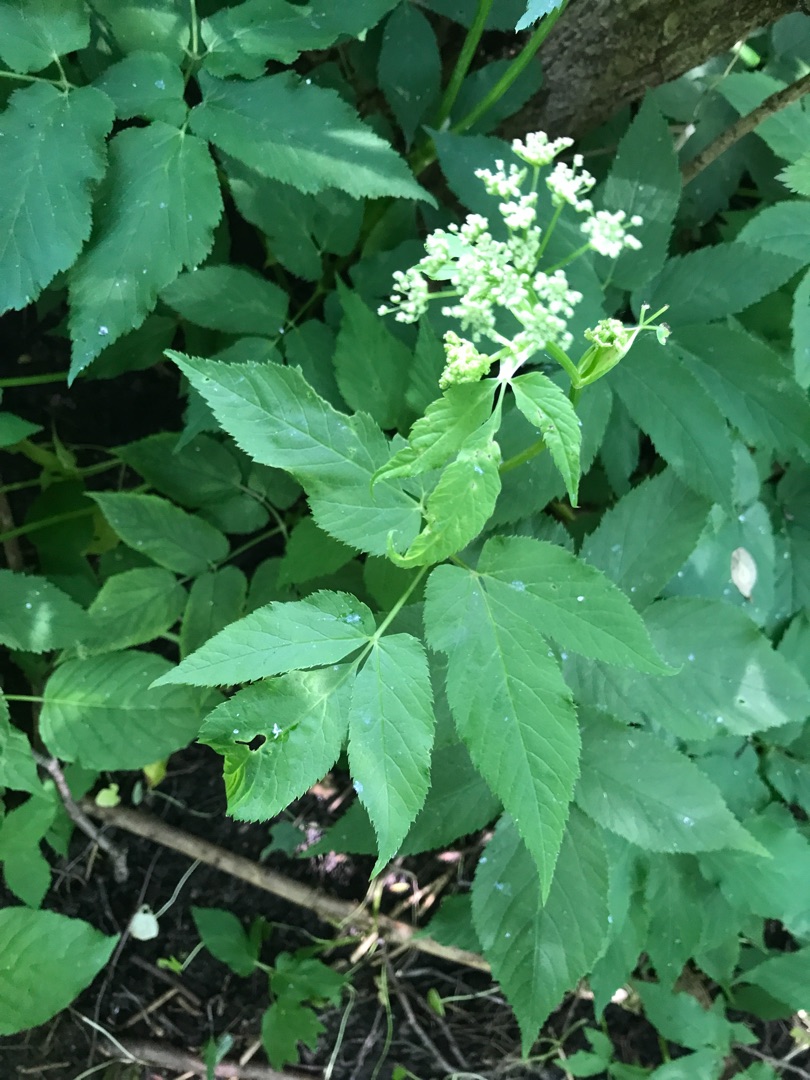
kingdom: Plantae
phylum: Tracheophyta
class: Magnoliopsida
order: Apiales
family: Apiaceae
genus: Aegopodium
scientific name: Aegopodium podagraria
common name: Skvalderkål
